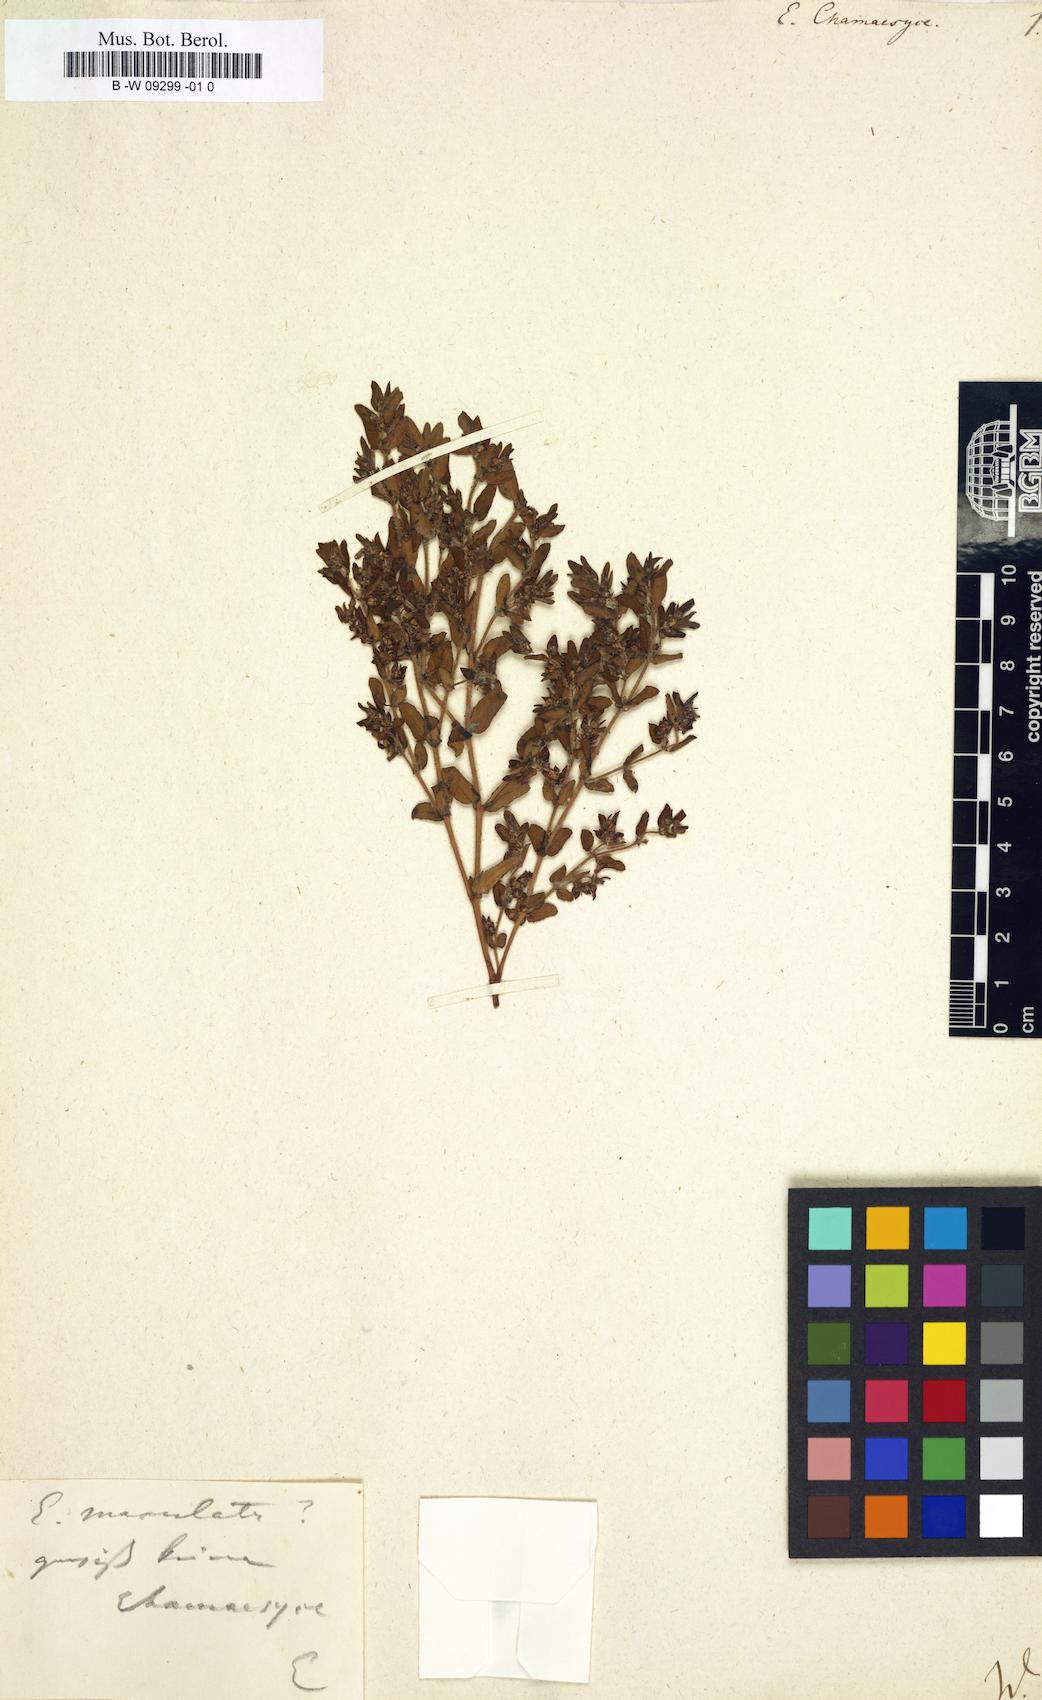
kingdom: Plantae
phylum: Tracheophyta
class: Magnoliopsida
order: Malpighiales
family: Euphorbiaceae
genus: Euphorbia
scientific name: Euphorbia chamaesyce
